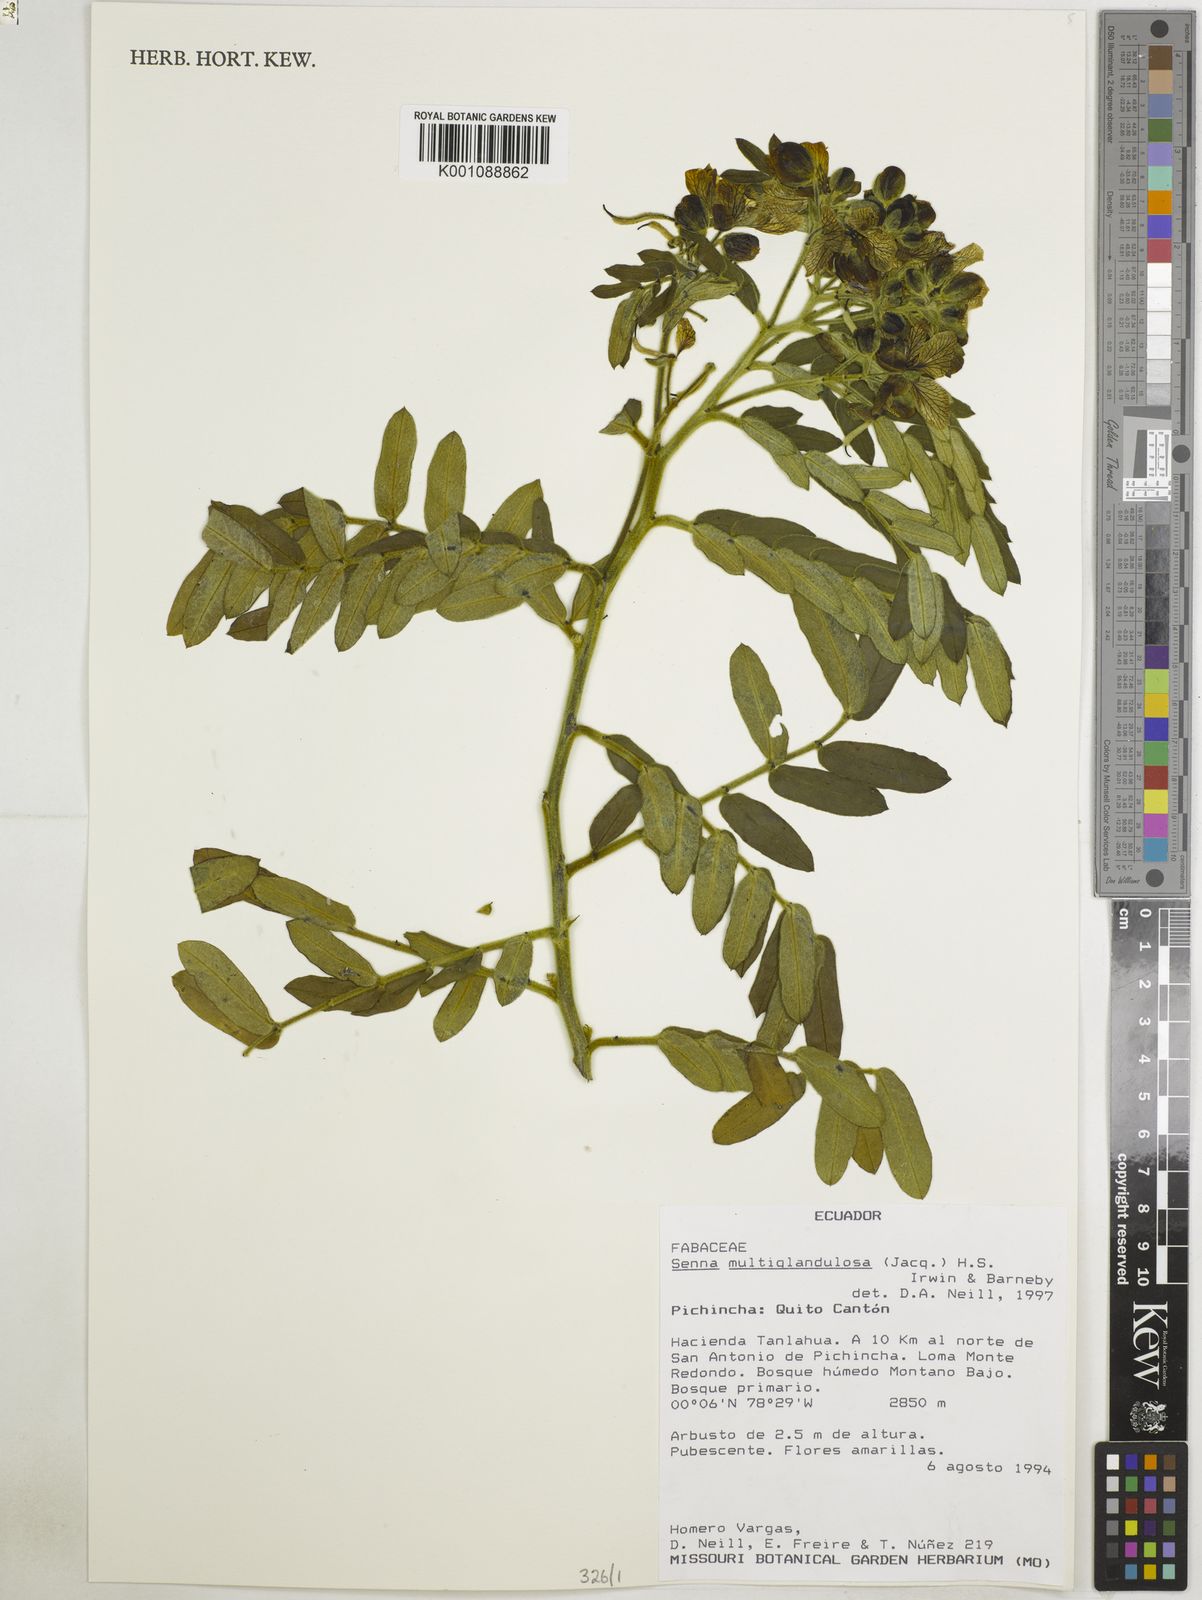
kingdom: Plantae
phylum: Tracheophyta
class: Magnoliopsida
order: Fabales
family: Fabaceae
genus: Senna
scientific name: Senna multiglandulosa
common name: Glandular senna
